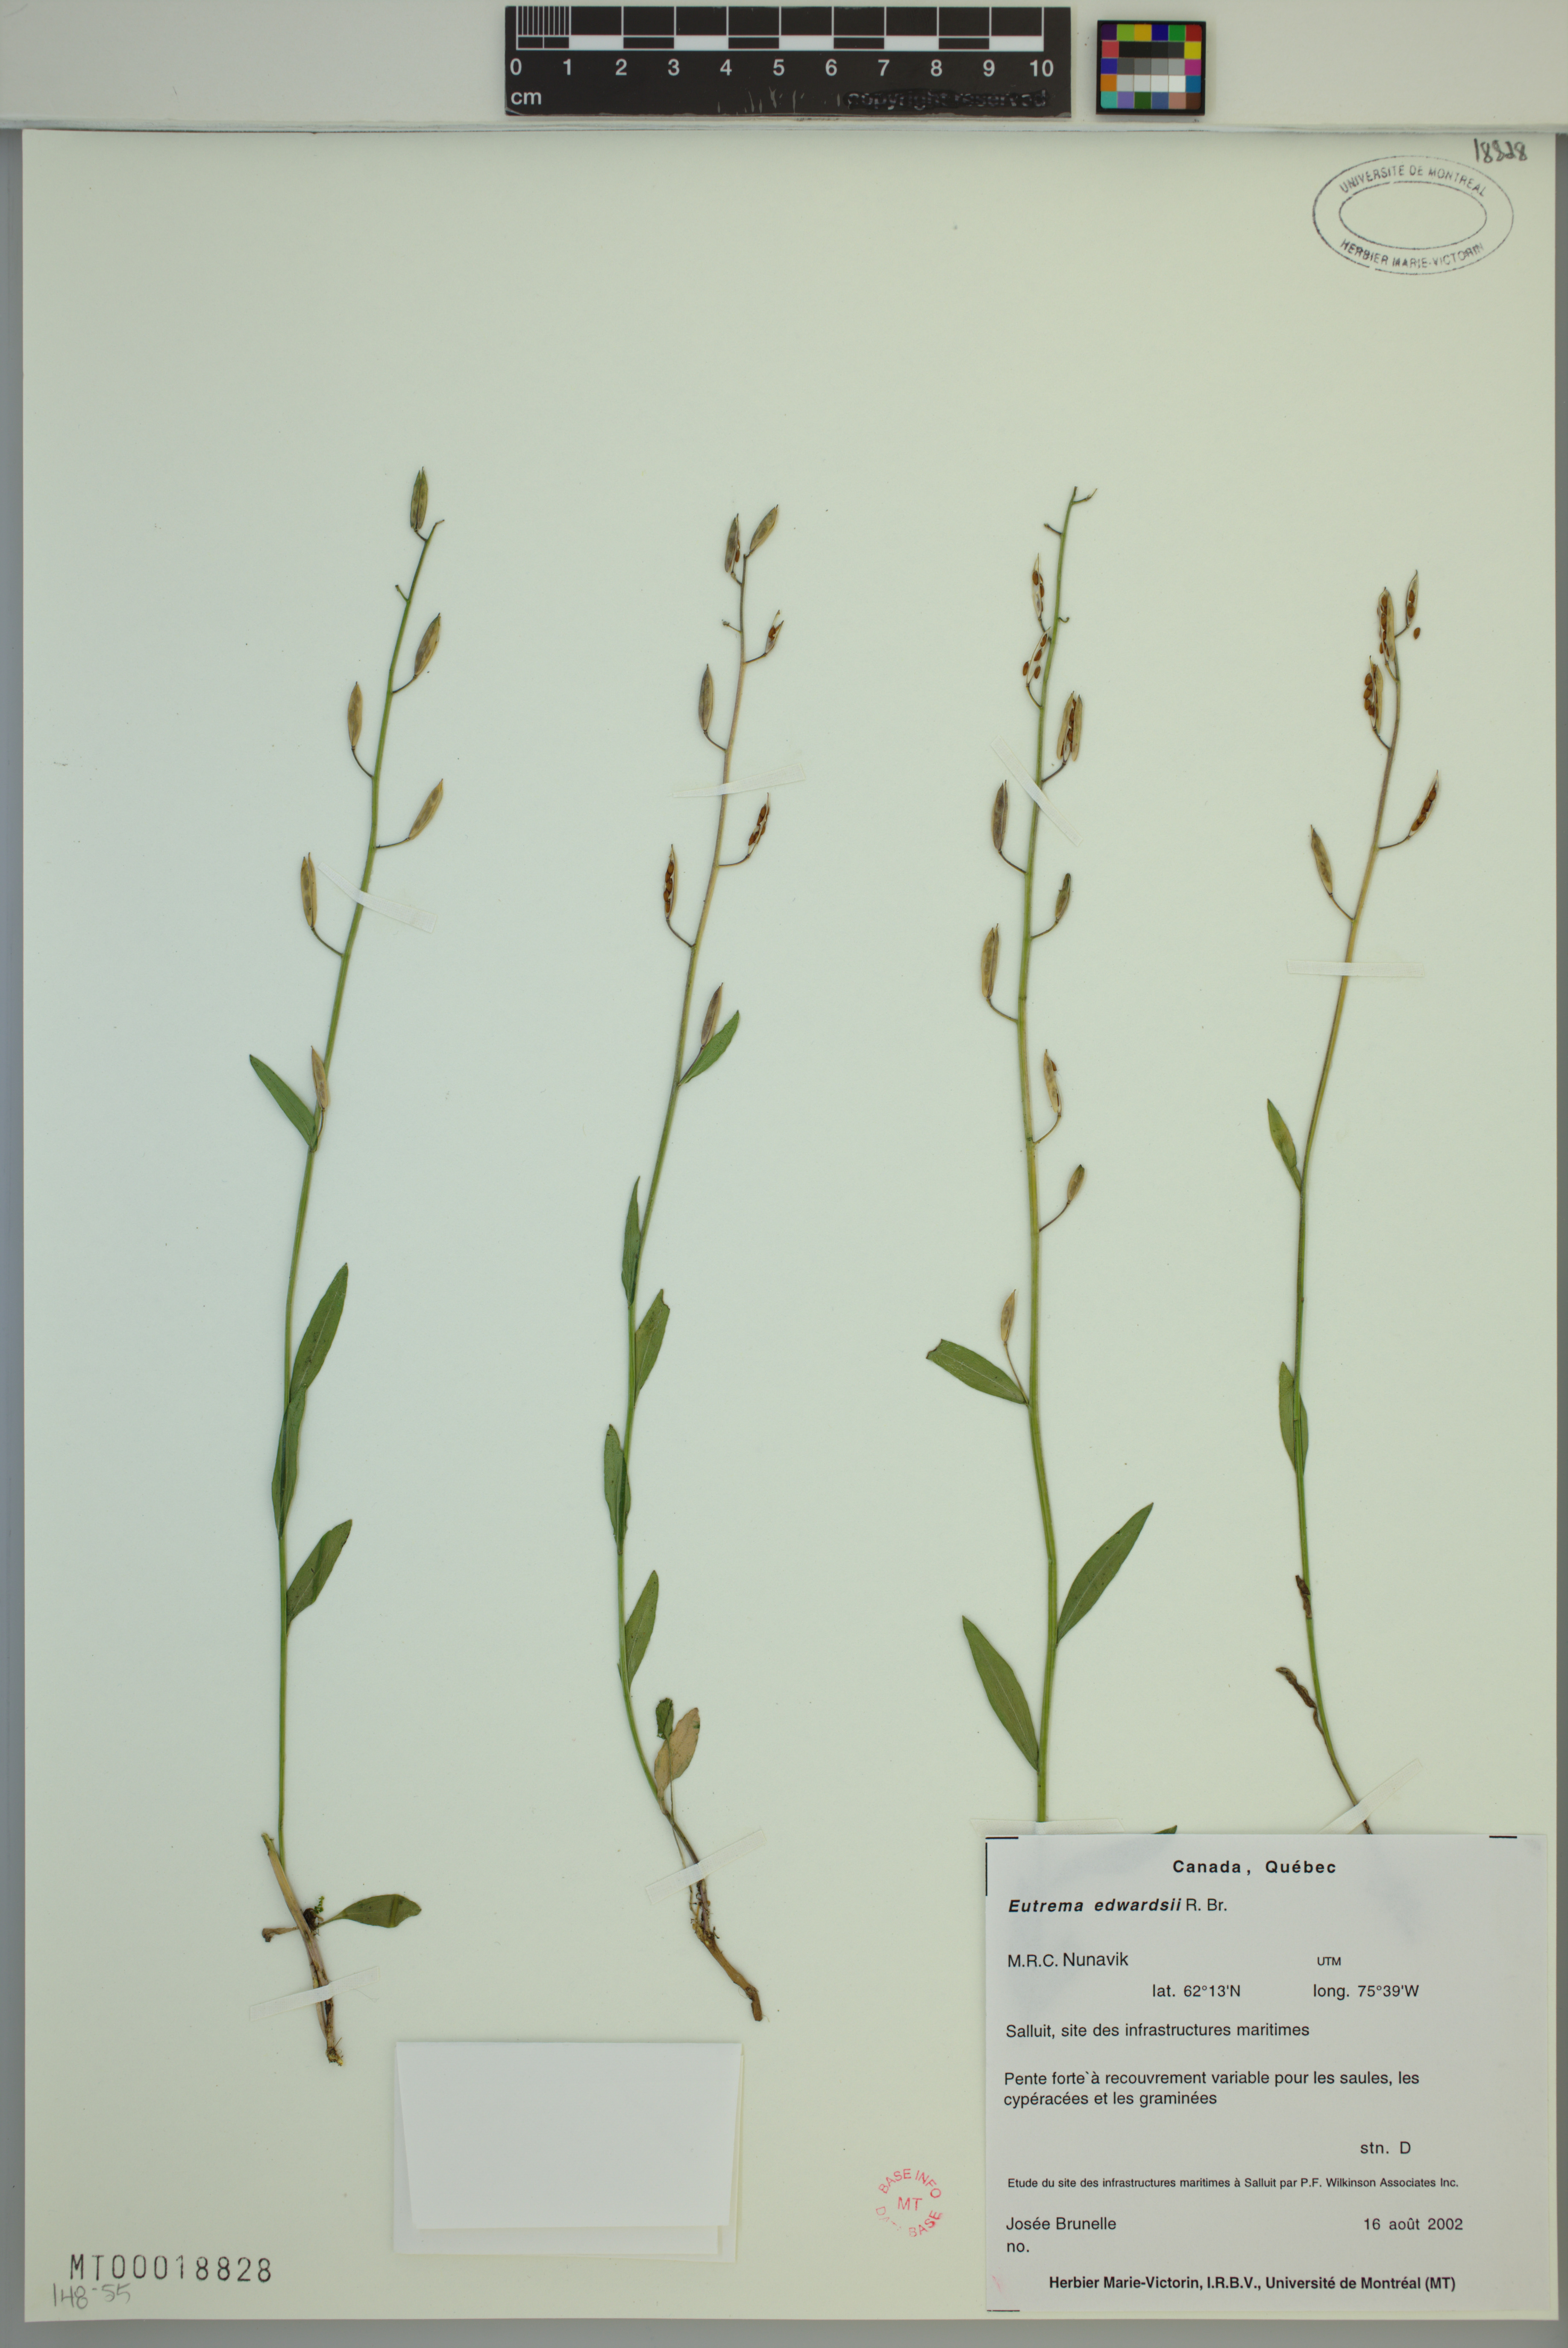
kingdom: Plantae
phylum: Tracheophyta
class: Magnoliopsida
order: Brassicales
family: Brassicaceae
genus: Eutrema
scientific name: Eutrema edwardsii
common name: Penland alpine fen mustard
